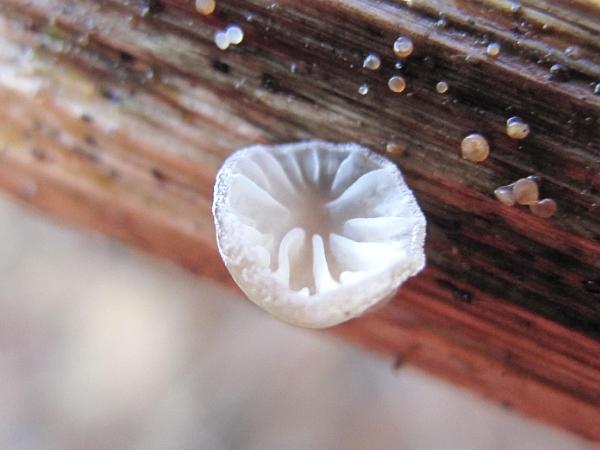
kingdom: Fungi
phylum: Basidiomycota
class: Agaricomycetes
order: Agaricales
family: Pleurotaceae
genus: Hohenbuehelia
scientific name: Hohenbuehelia cyphelliformis
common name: urte-filthat
